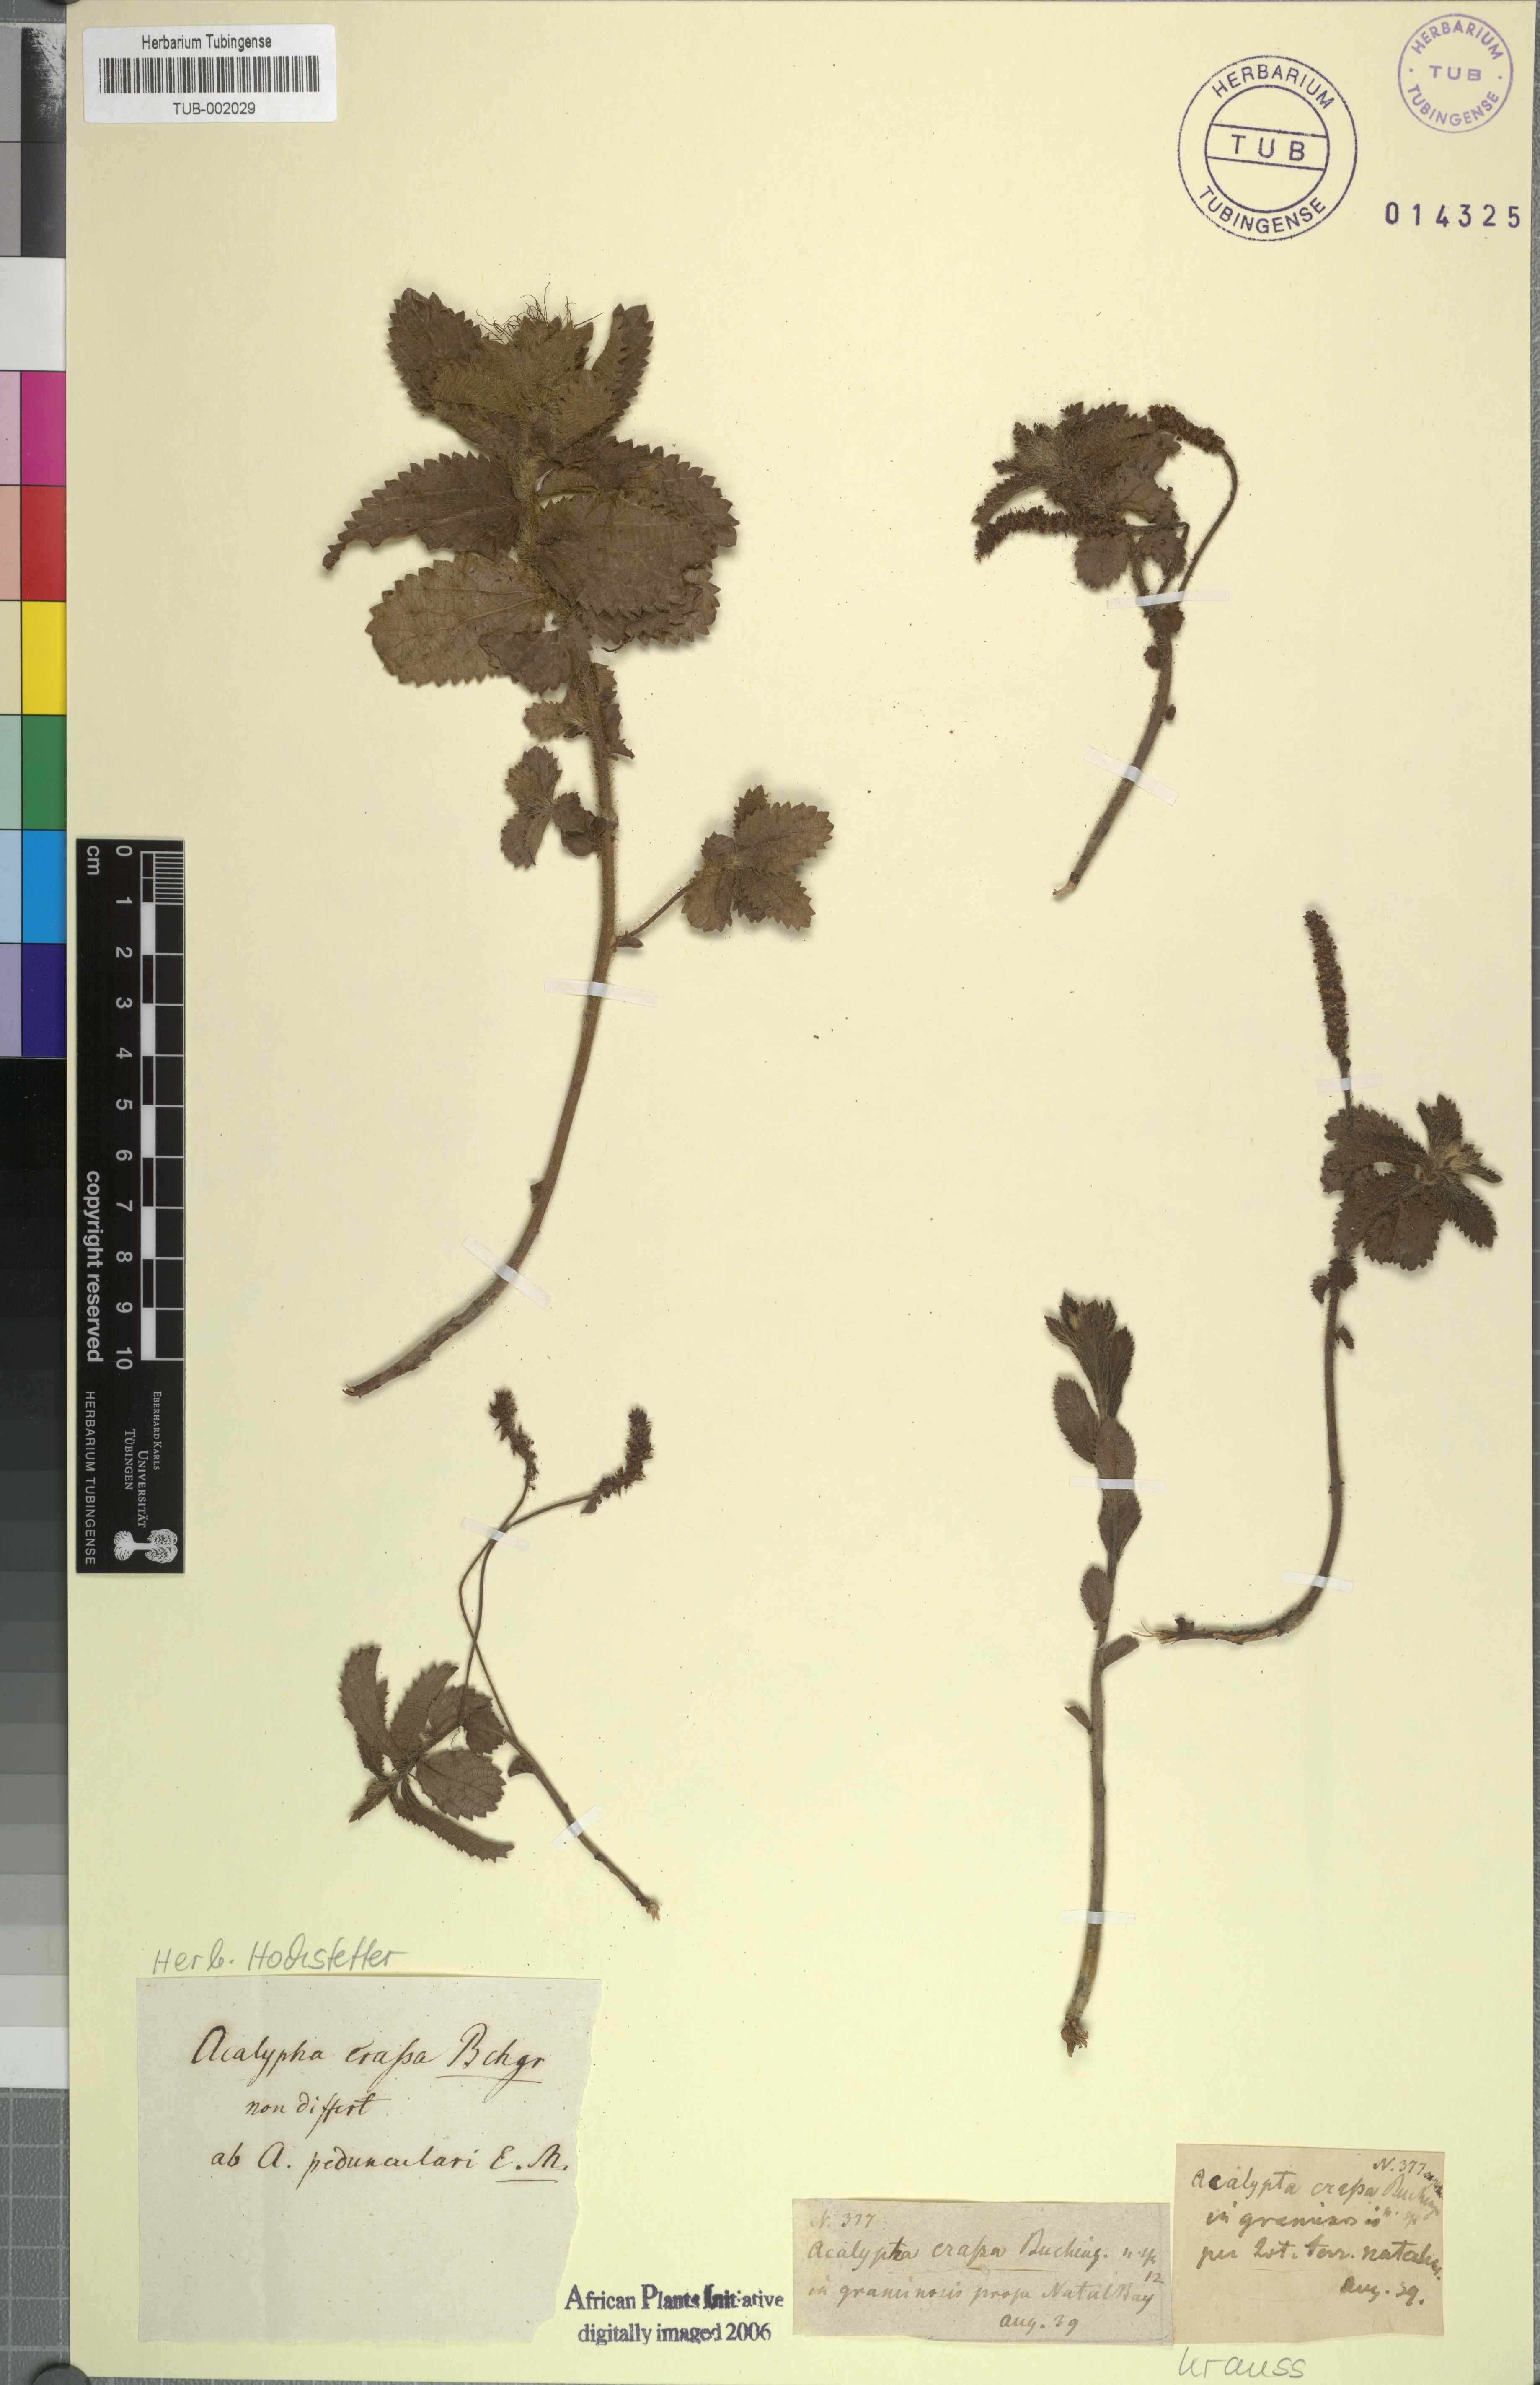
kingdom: Plantae
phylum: Tracheophyta
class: Magnoliopsida
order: Malpighiales
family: Euphorbiaceae
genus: Acalypha
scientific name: Acalypha peduncularis
